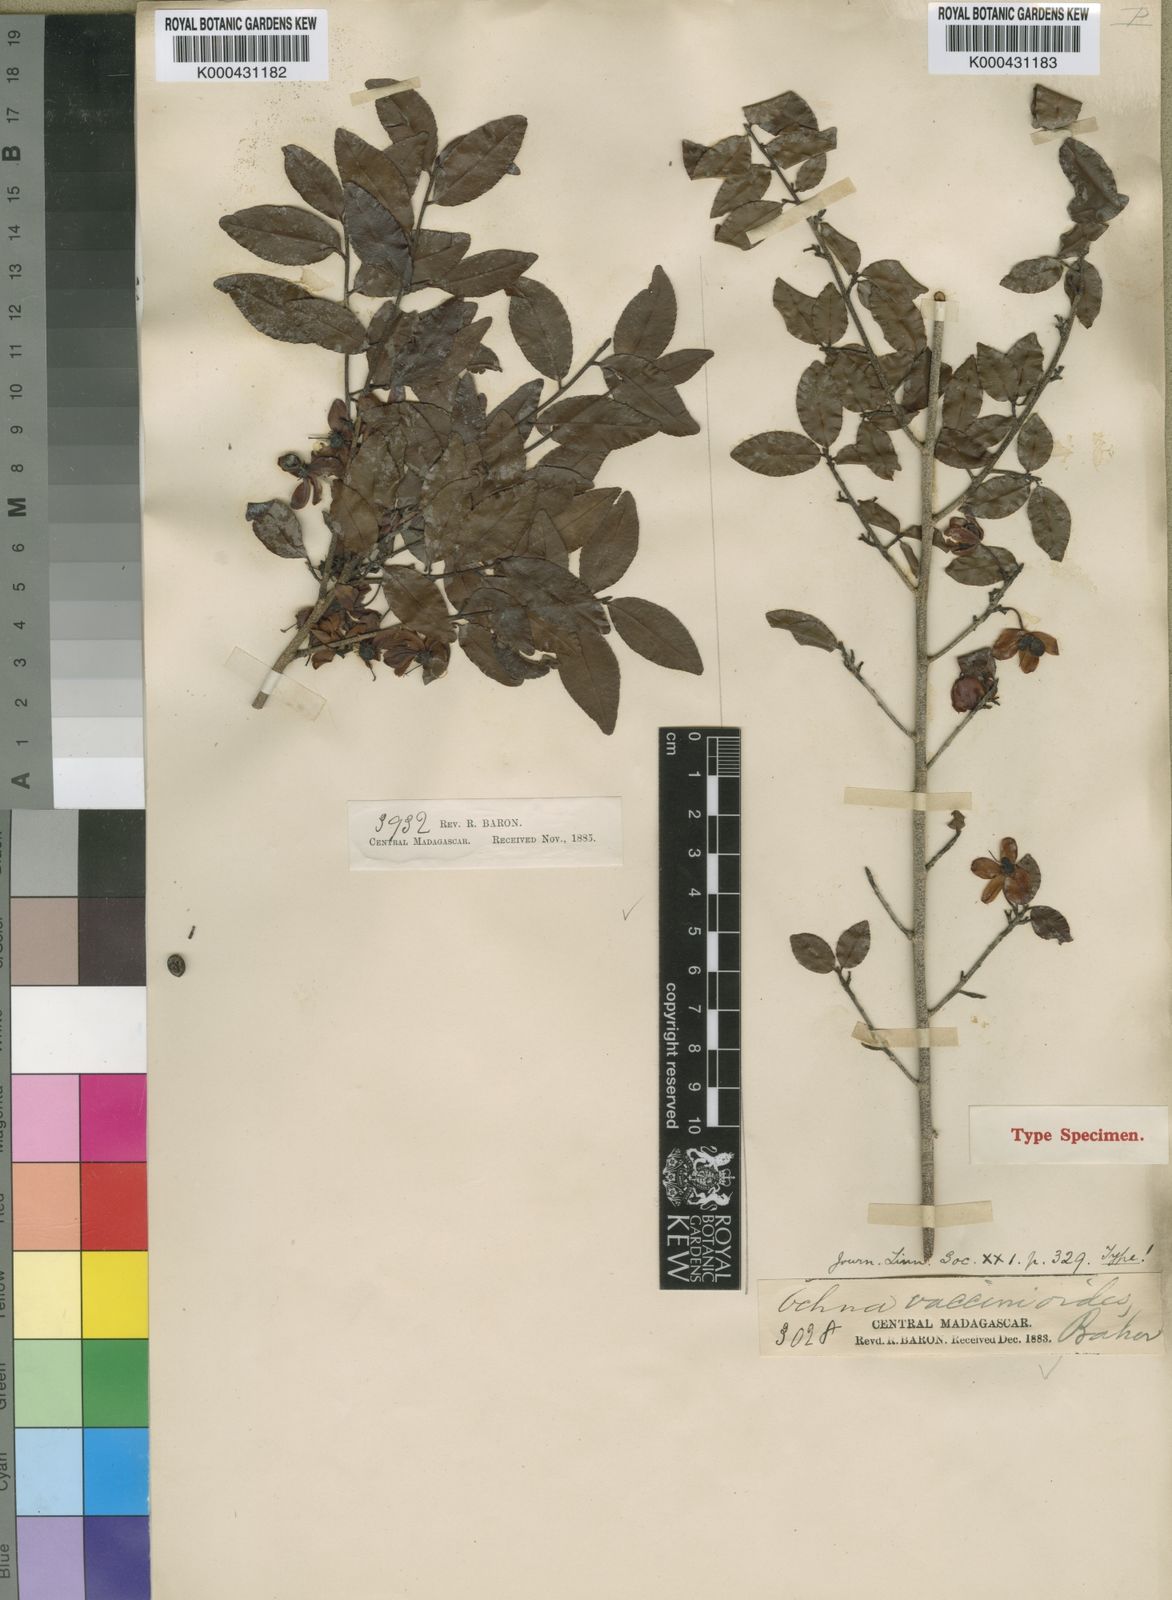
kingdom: Plantae
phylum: Tracheophyta
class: Magnoliopsida
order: Malpighiales
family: Ochnaceae
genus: Ochna
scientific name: Ochna polycarpa
